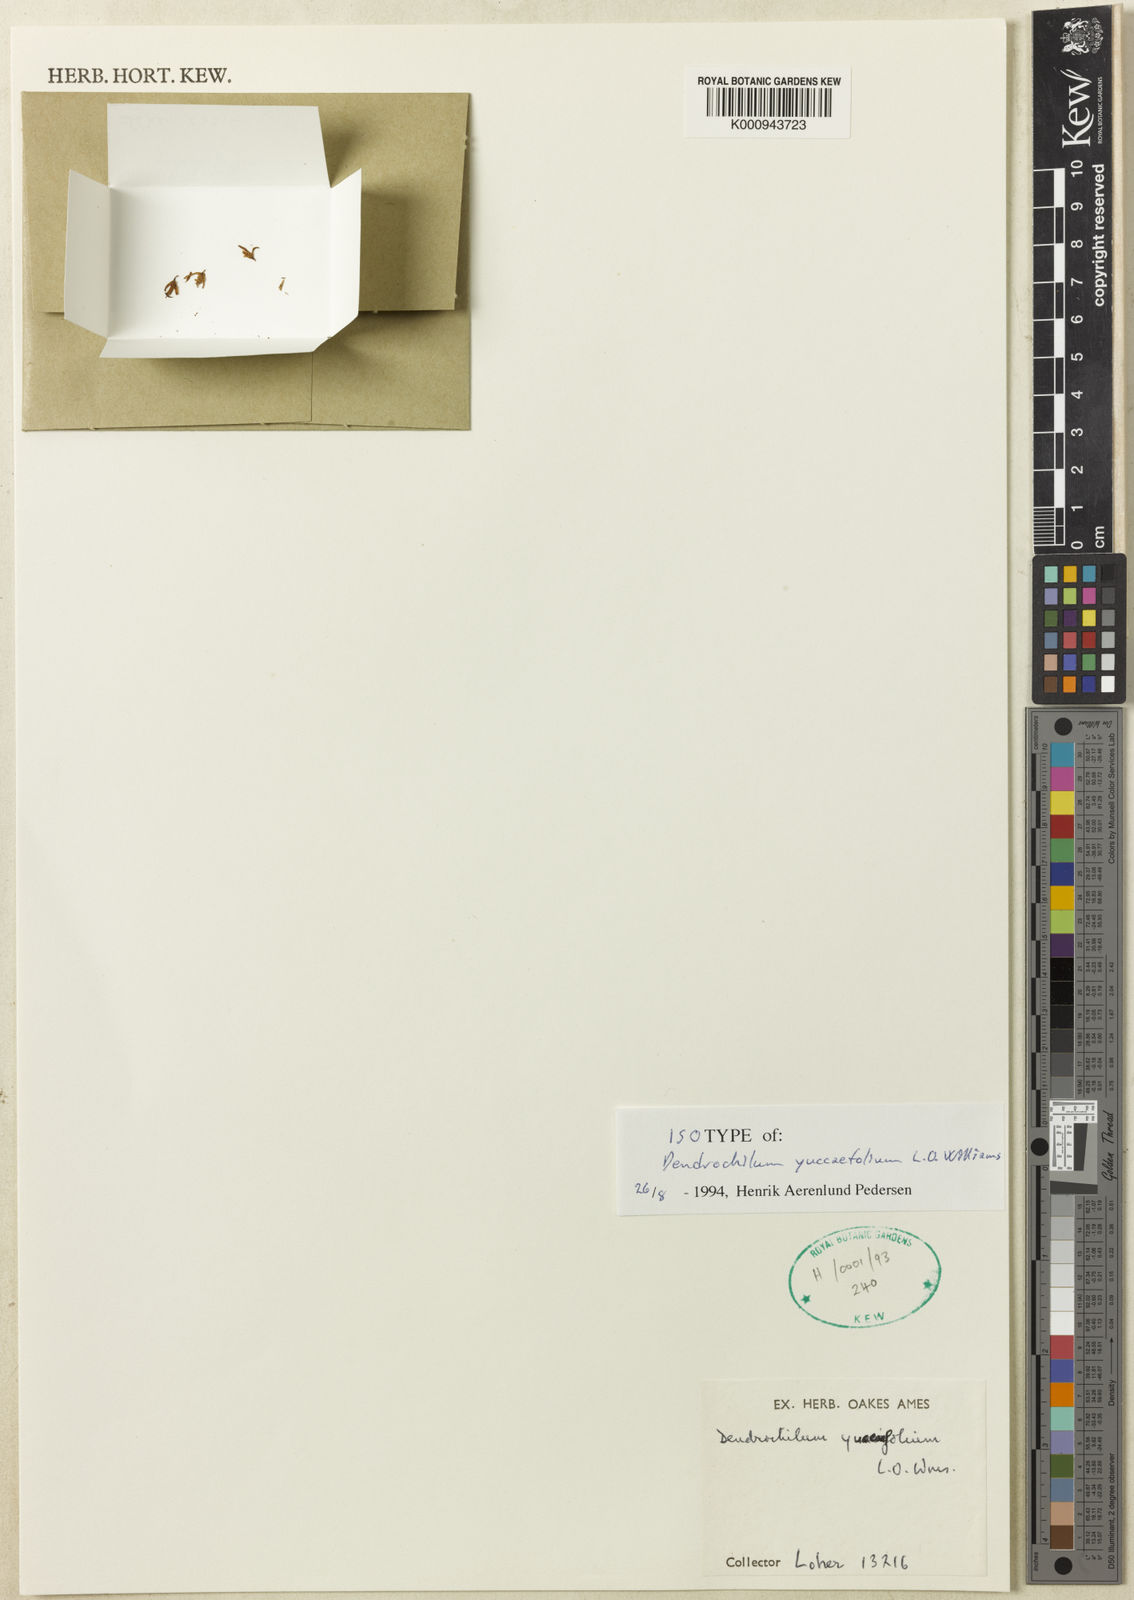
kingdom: Plantae
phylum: Tracheophyta
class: Liliopsida
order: Asparagales
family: Orchidaceae
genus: Coelogyne
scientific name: Coelogyne yuccifolia
